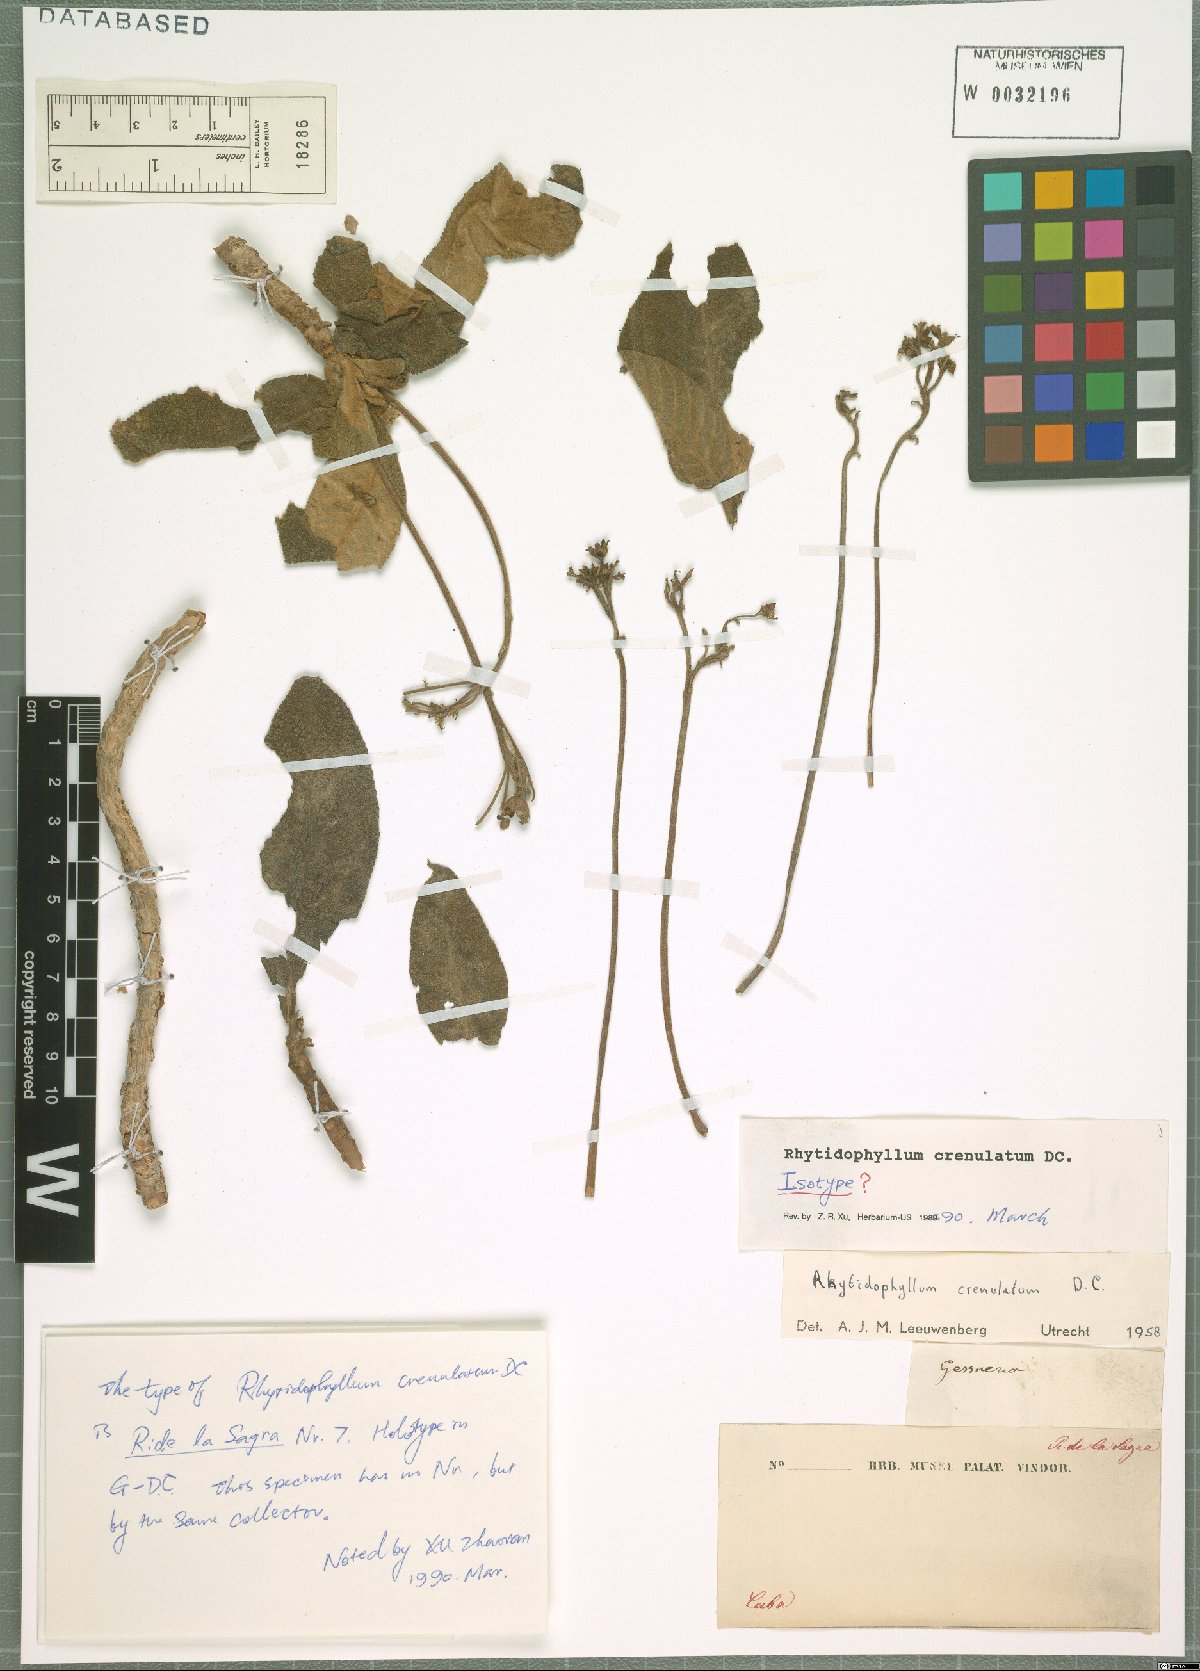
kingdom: Plantae
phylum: Tracheophyta
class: Magnoliopsida
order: Lamiales
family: Gesneriaceae
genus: Rhytidophyllum
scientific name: Rhytidophyllum crenulatum
